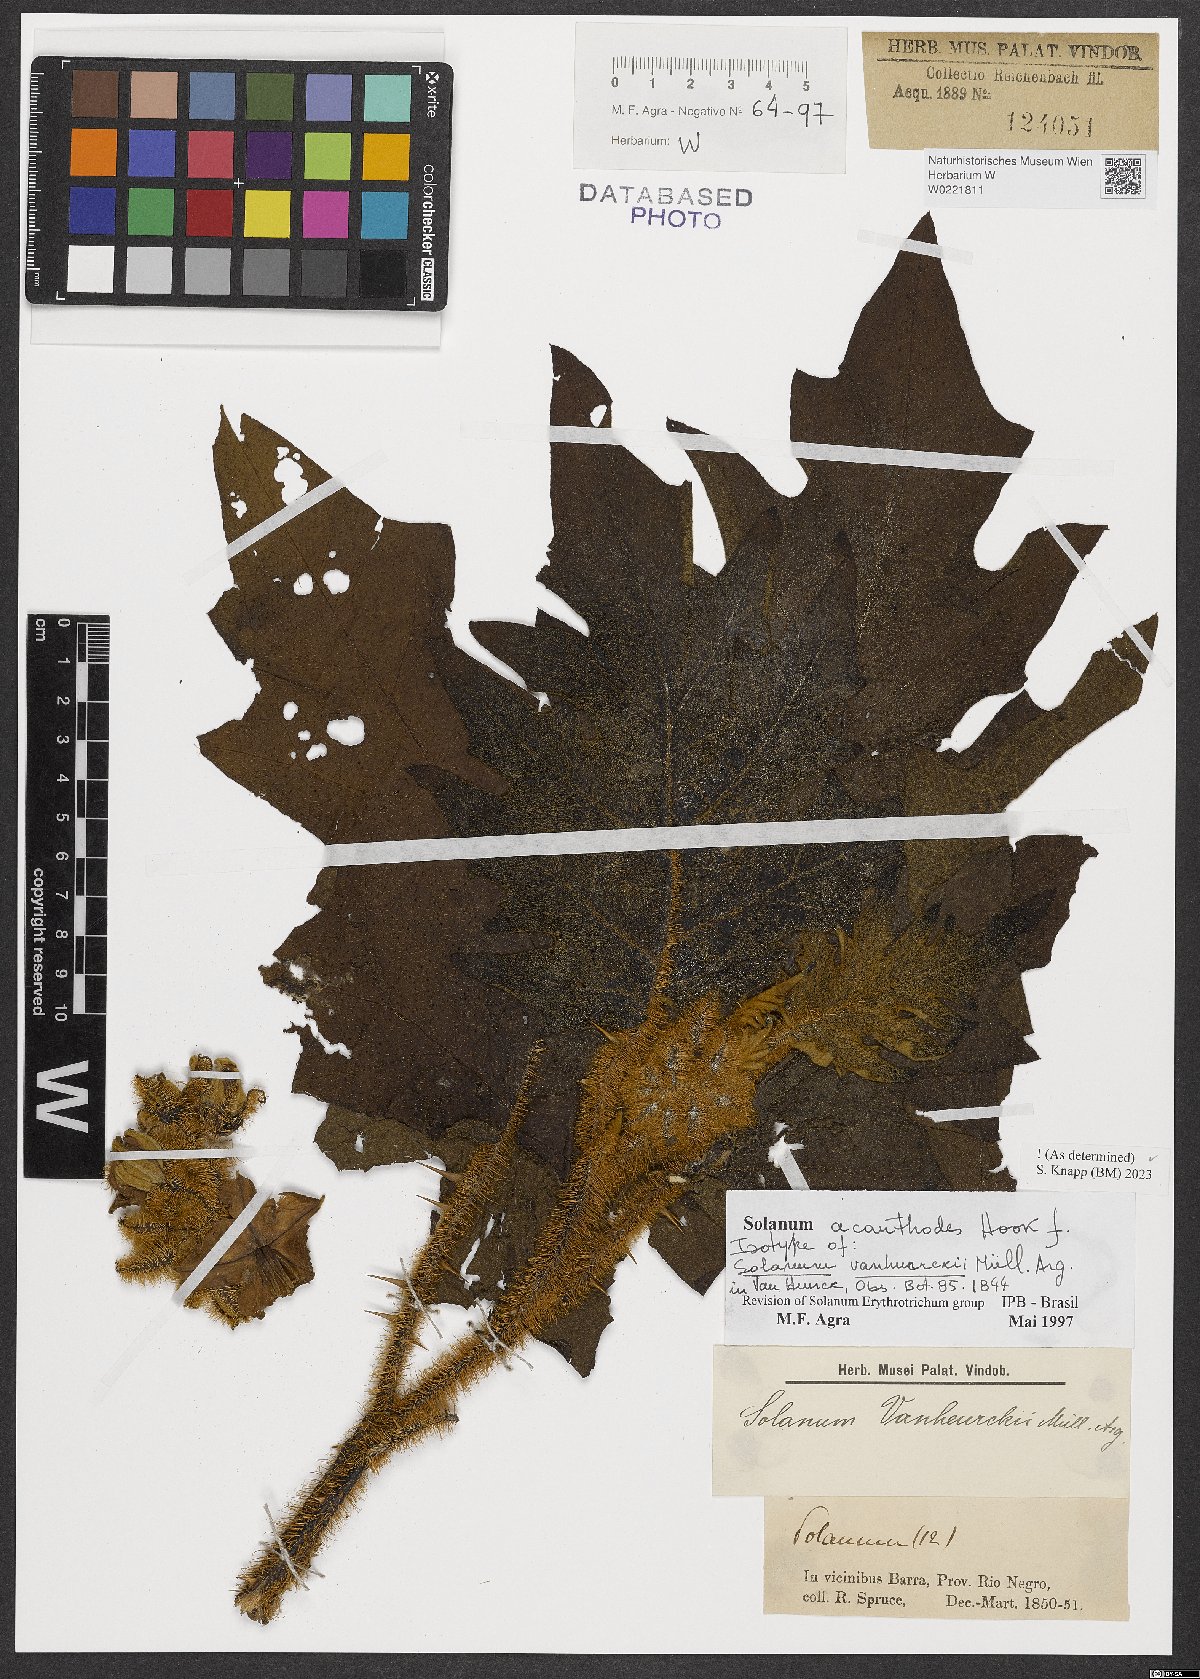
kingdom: Plantae
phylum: Tracheophyta
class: Magnoliopsida
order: Solanales
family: Solanaceae
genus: Solanum
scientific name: Solanum vanheurckii
